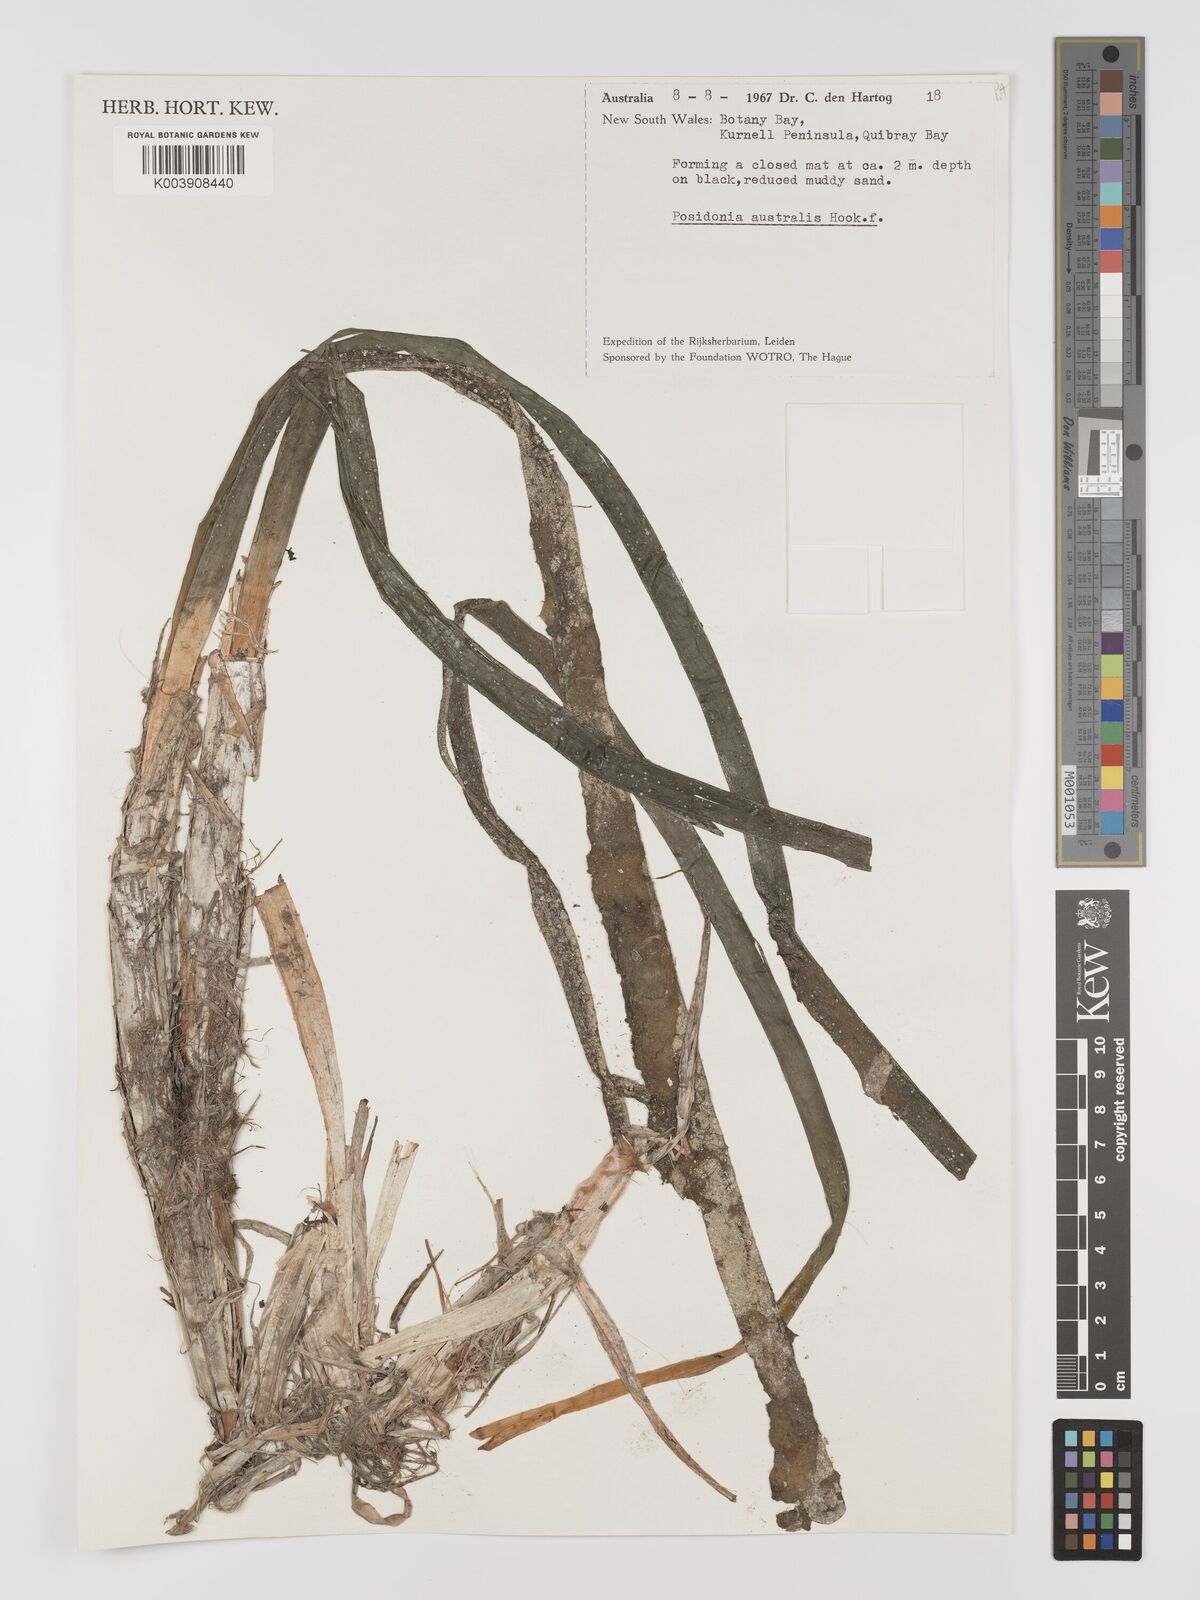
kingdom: Plantae
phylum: Tracheophyta
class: Liliopsida
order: Alismatales
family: Posidoniaceae
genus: Posidonia
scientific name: Posidonia australis
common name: Species code: pa
